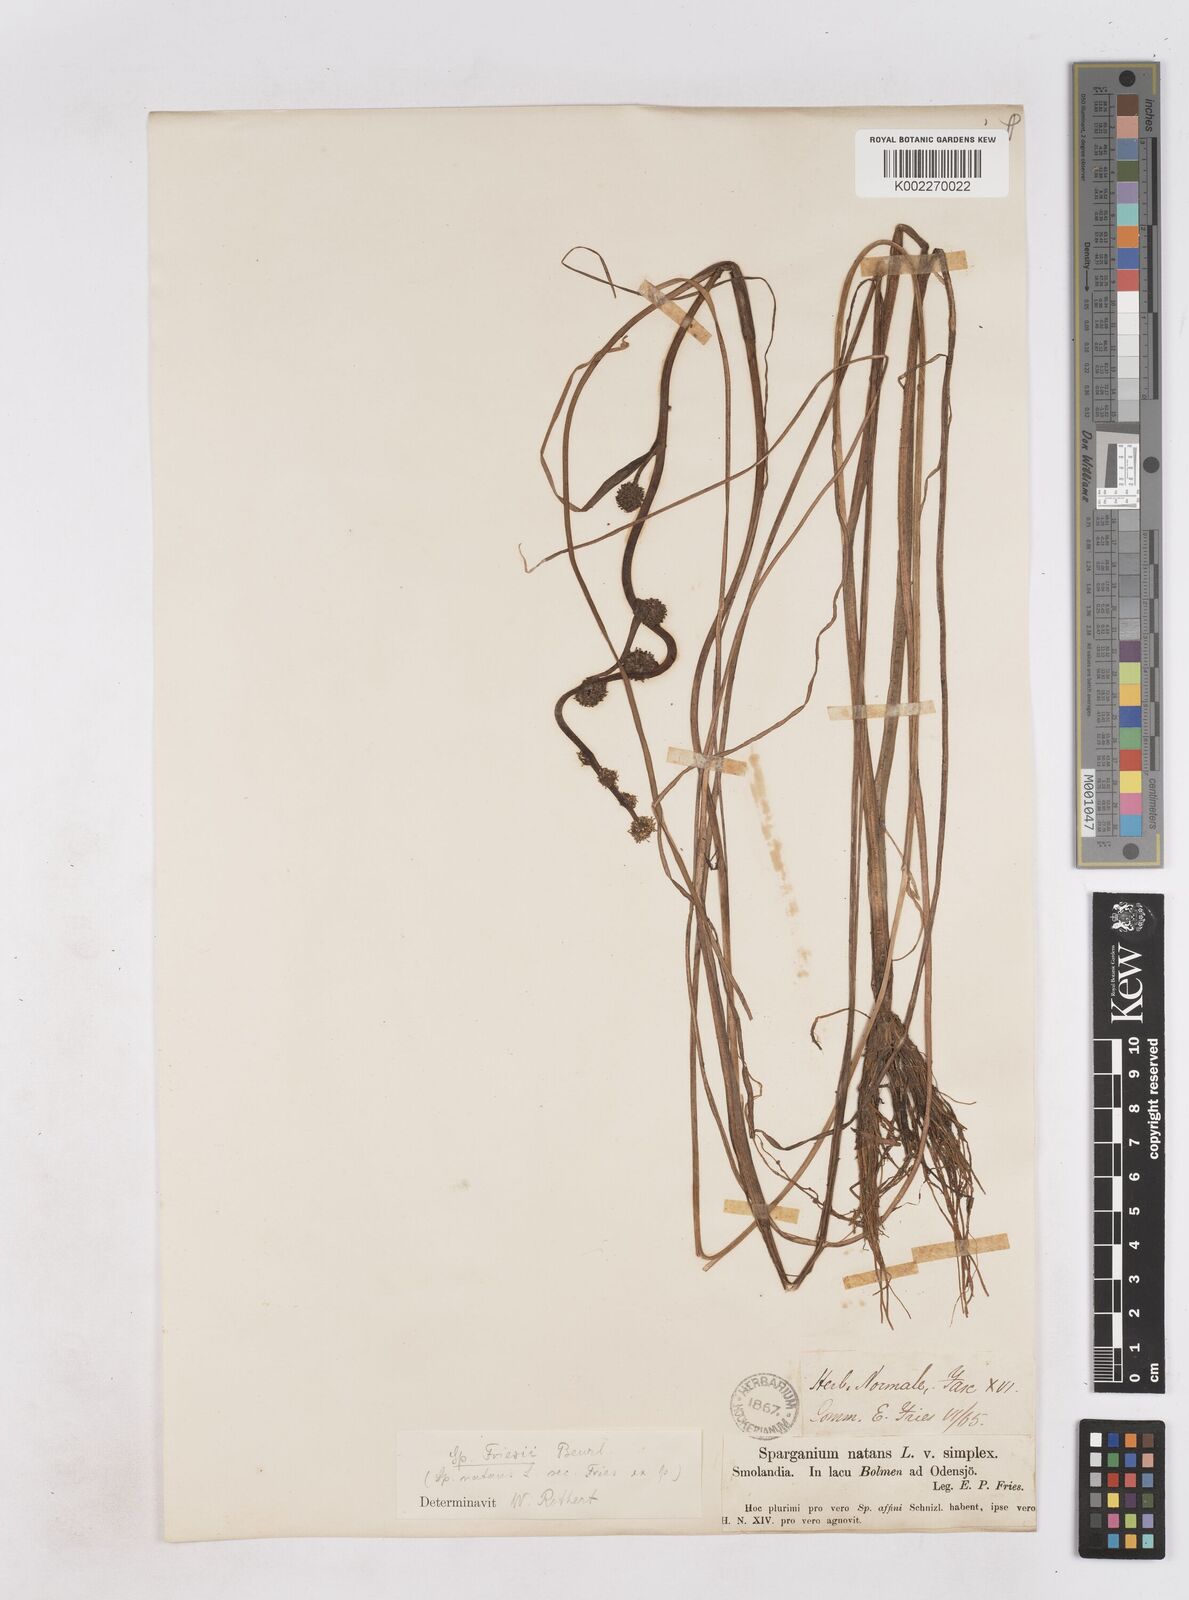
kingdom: Plantae
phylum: Tracheophyta
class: Liliopsida
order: Poales
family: Typhaceae
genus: Sparganium
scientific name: Sparganium gramineum
